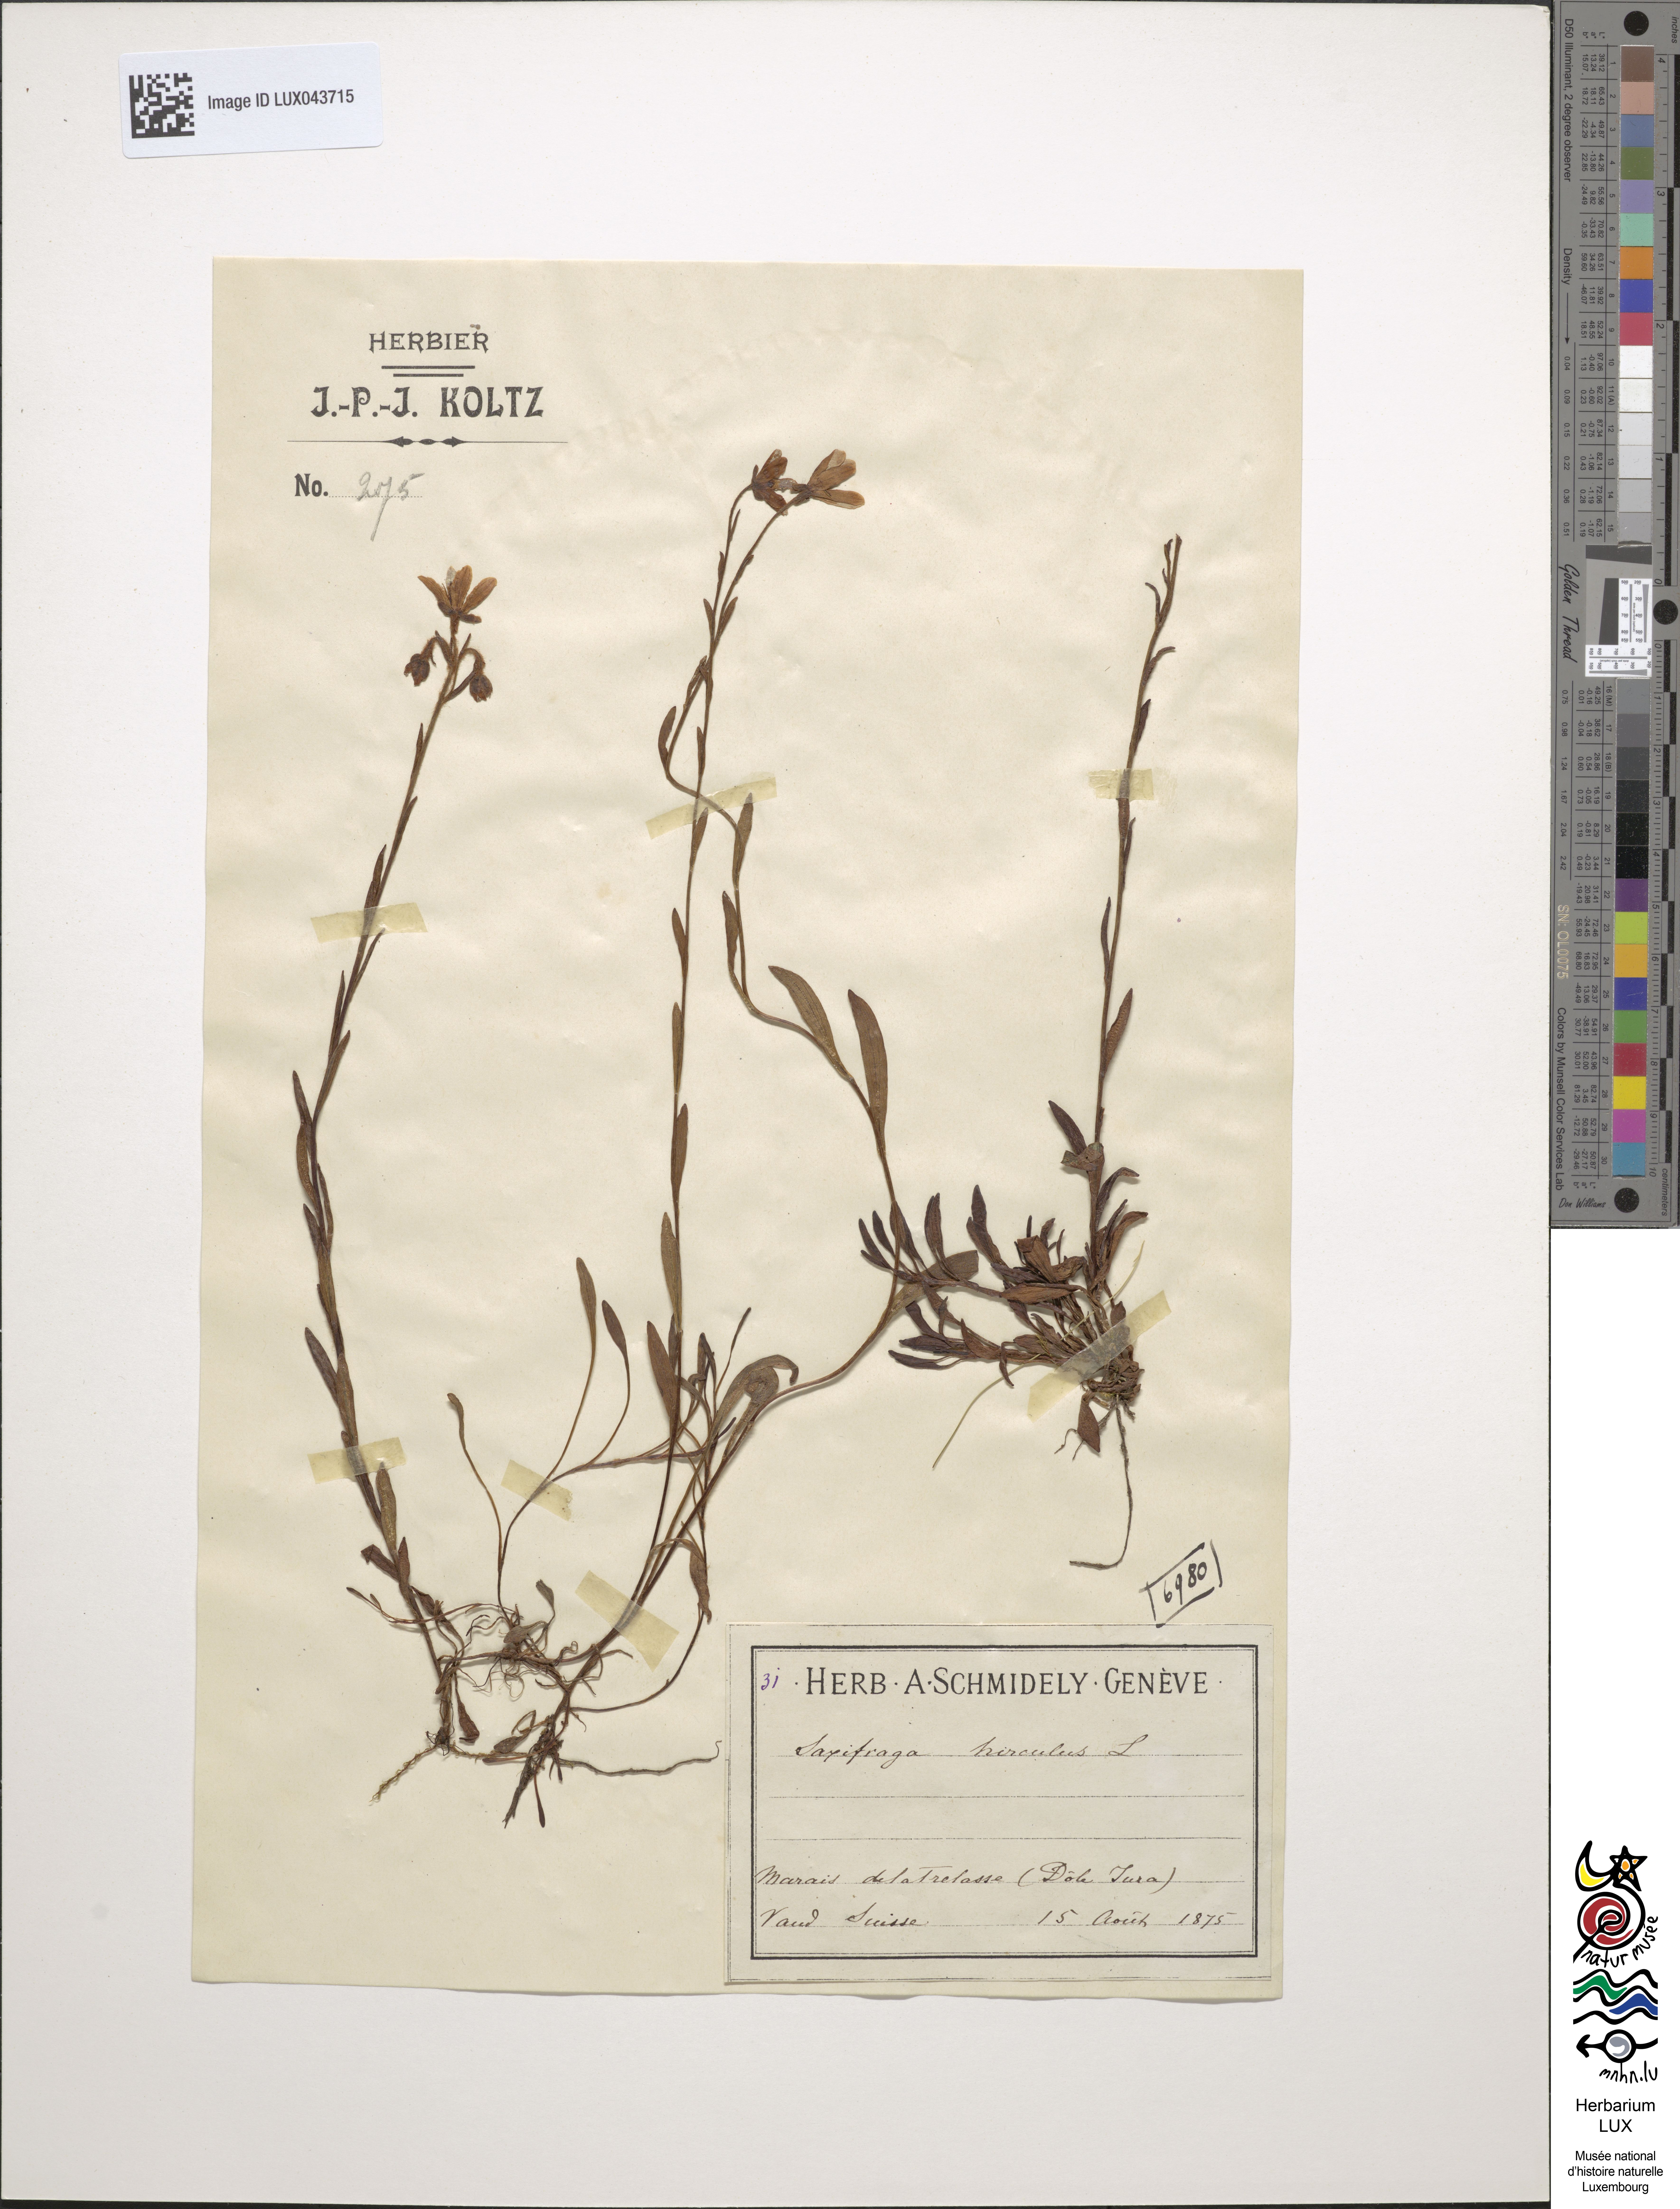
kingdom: Plantae
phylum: Tracheophyta
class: Magnoliopsida
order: Saxifragales
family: Saxifragaceae
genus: Saxifraga
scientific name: Saxifraga hirculus
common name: Yellow marsh saxifrage
